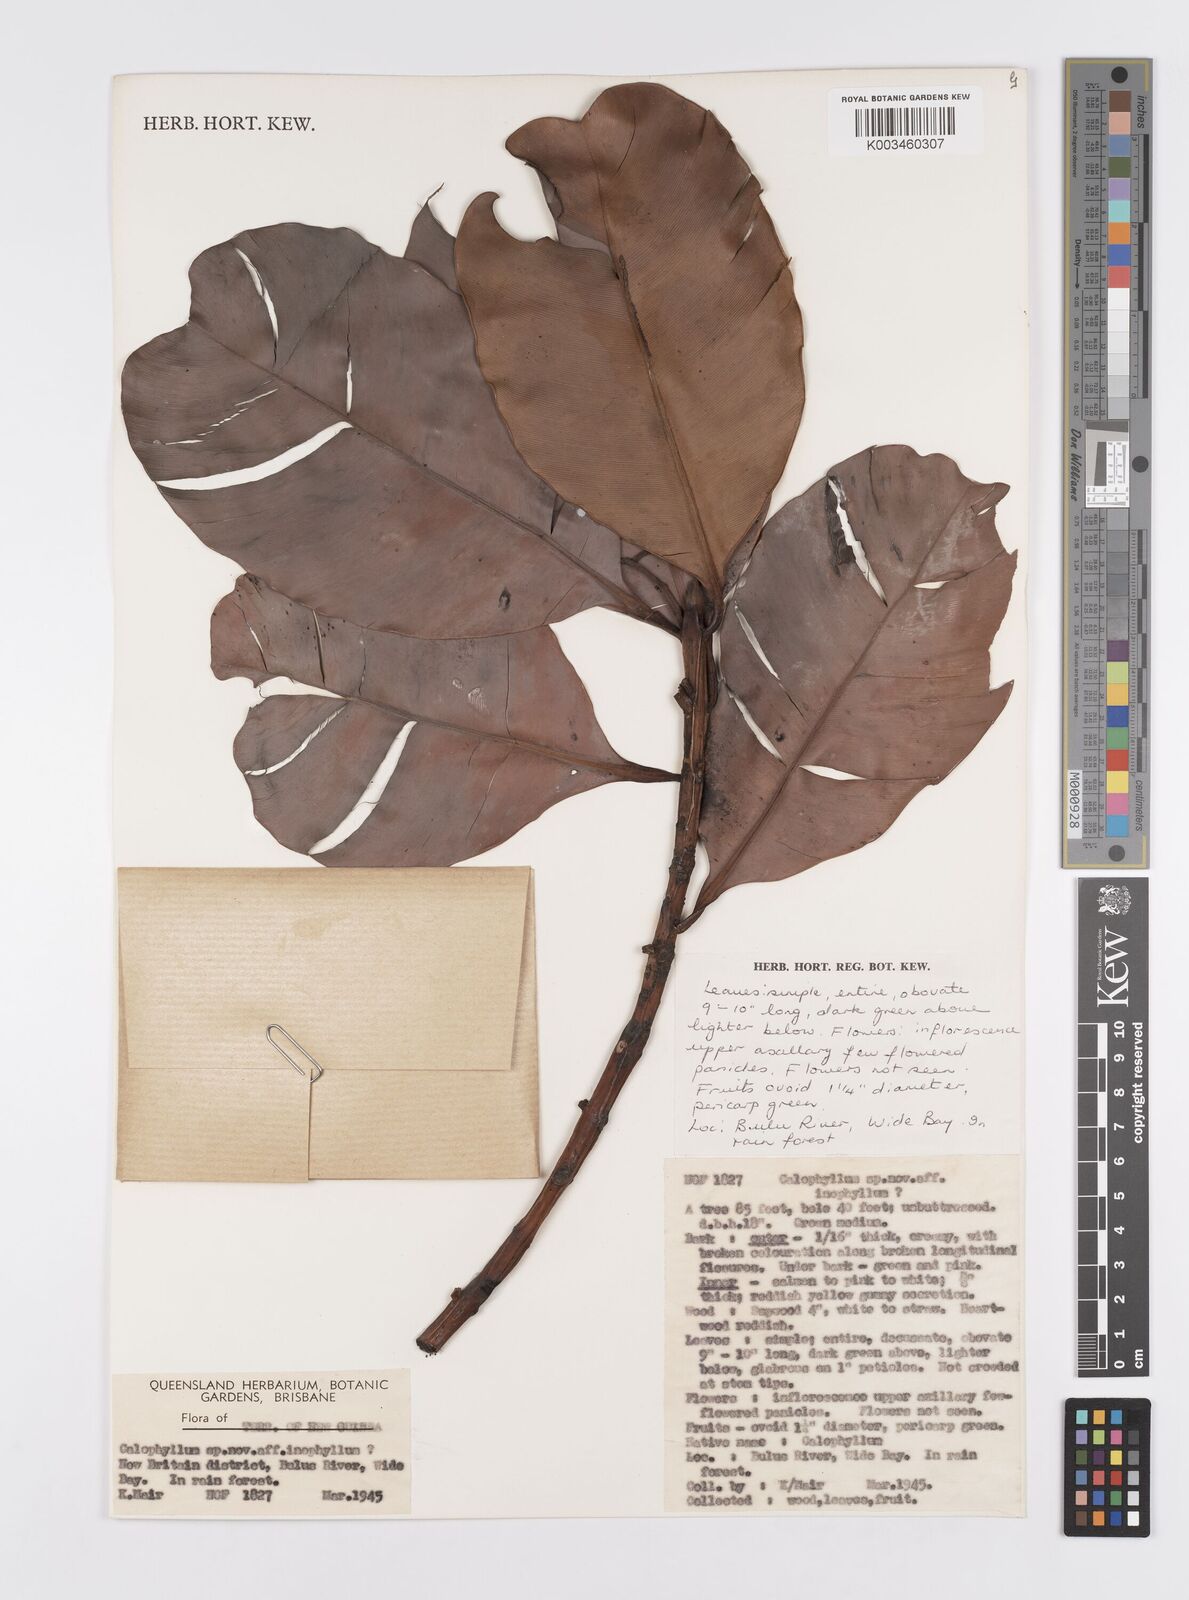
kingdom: Plantae
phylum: Tracheophyta
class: Magnoliopsida
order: Malpighiales
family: Calophyllaceae
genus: Calophyllum
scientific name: Calophyllum inophyllum
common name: Alexandrian laurel
